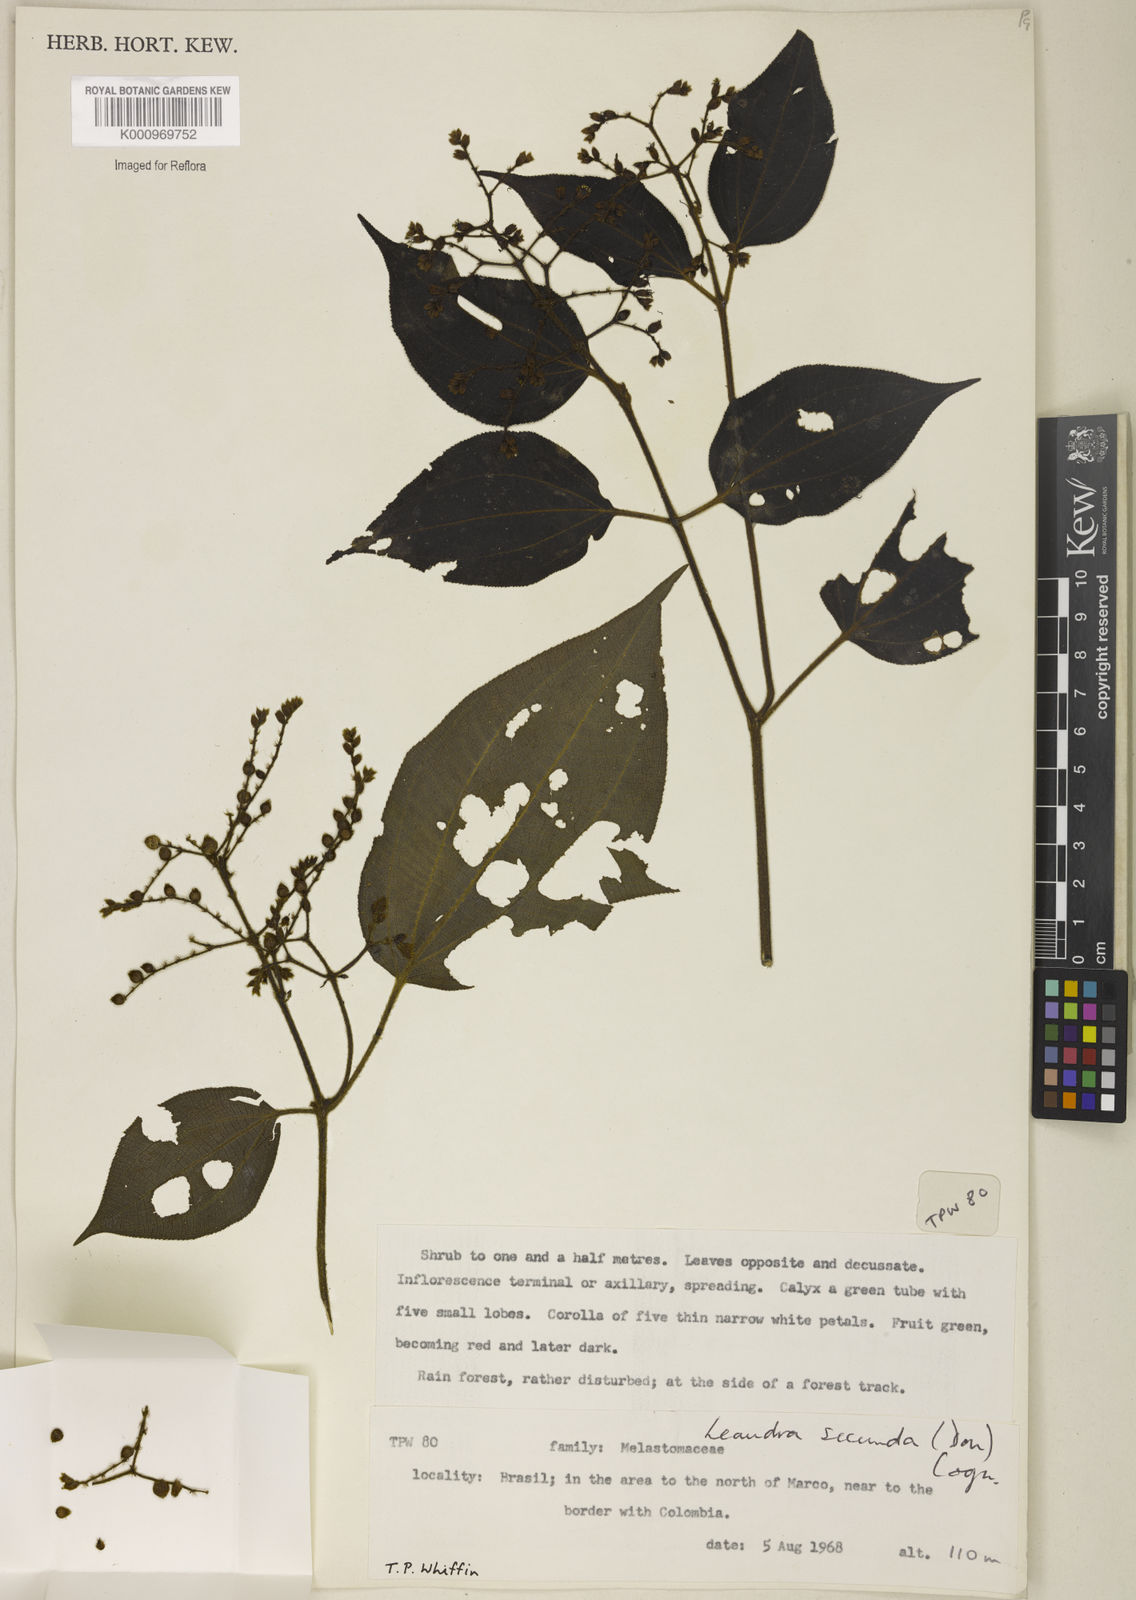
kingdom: Plantae
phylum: Tracheophyta
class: Magnoliopsida
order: Myrtales
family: Melastomataceae
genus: Miconia
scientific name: Miconia neosecunda
